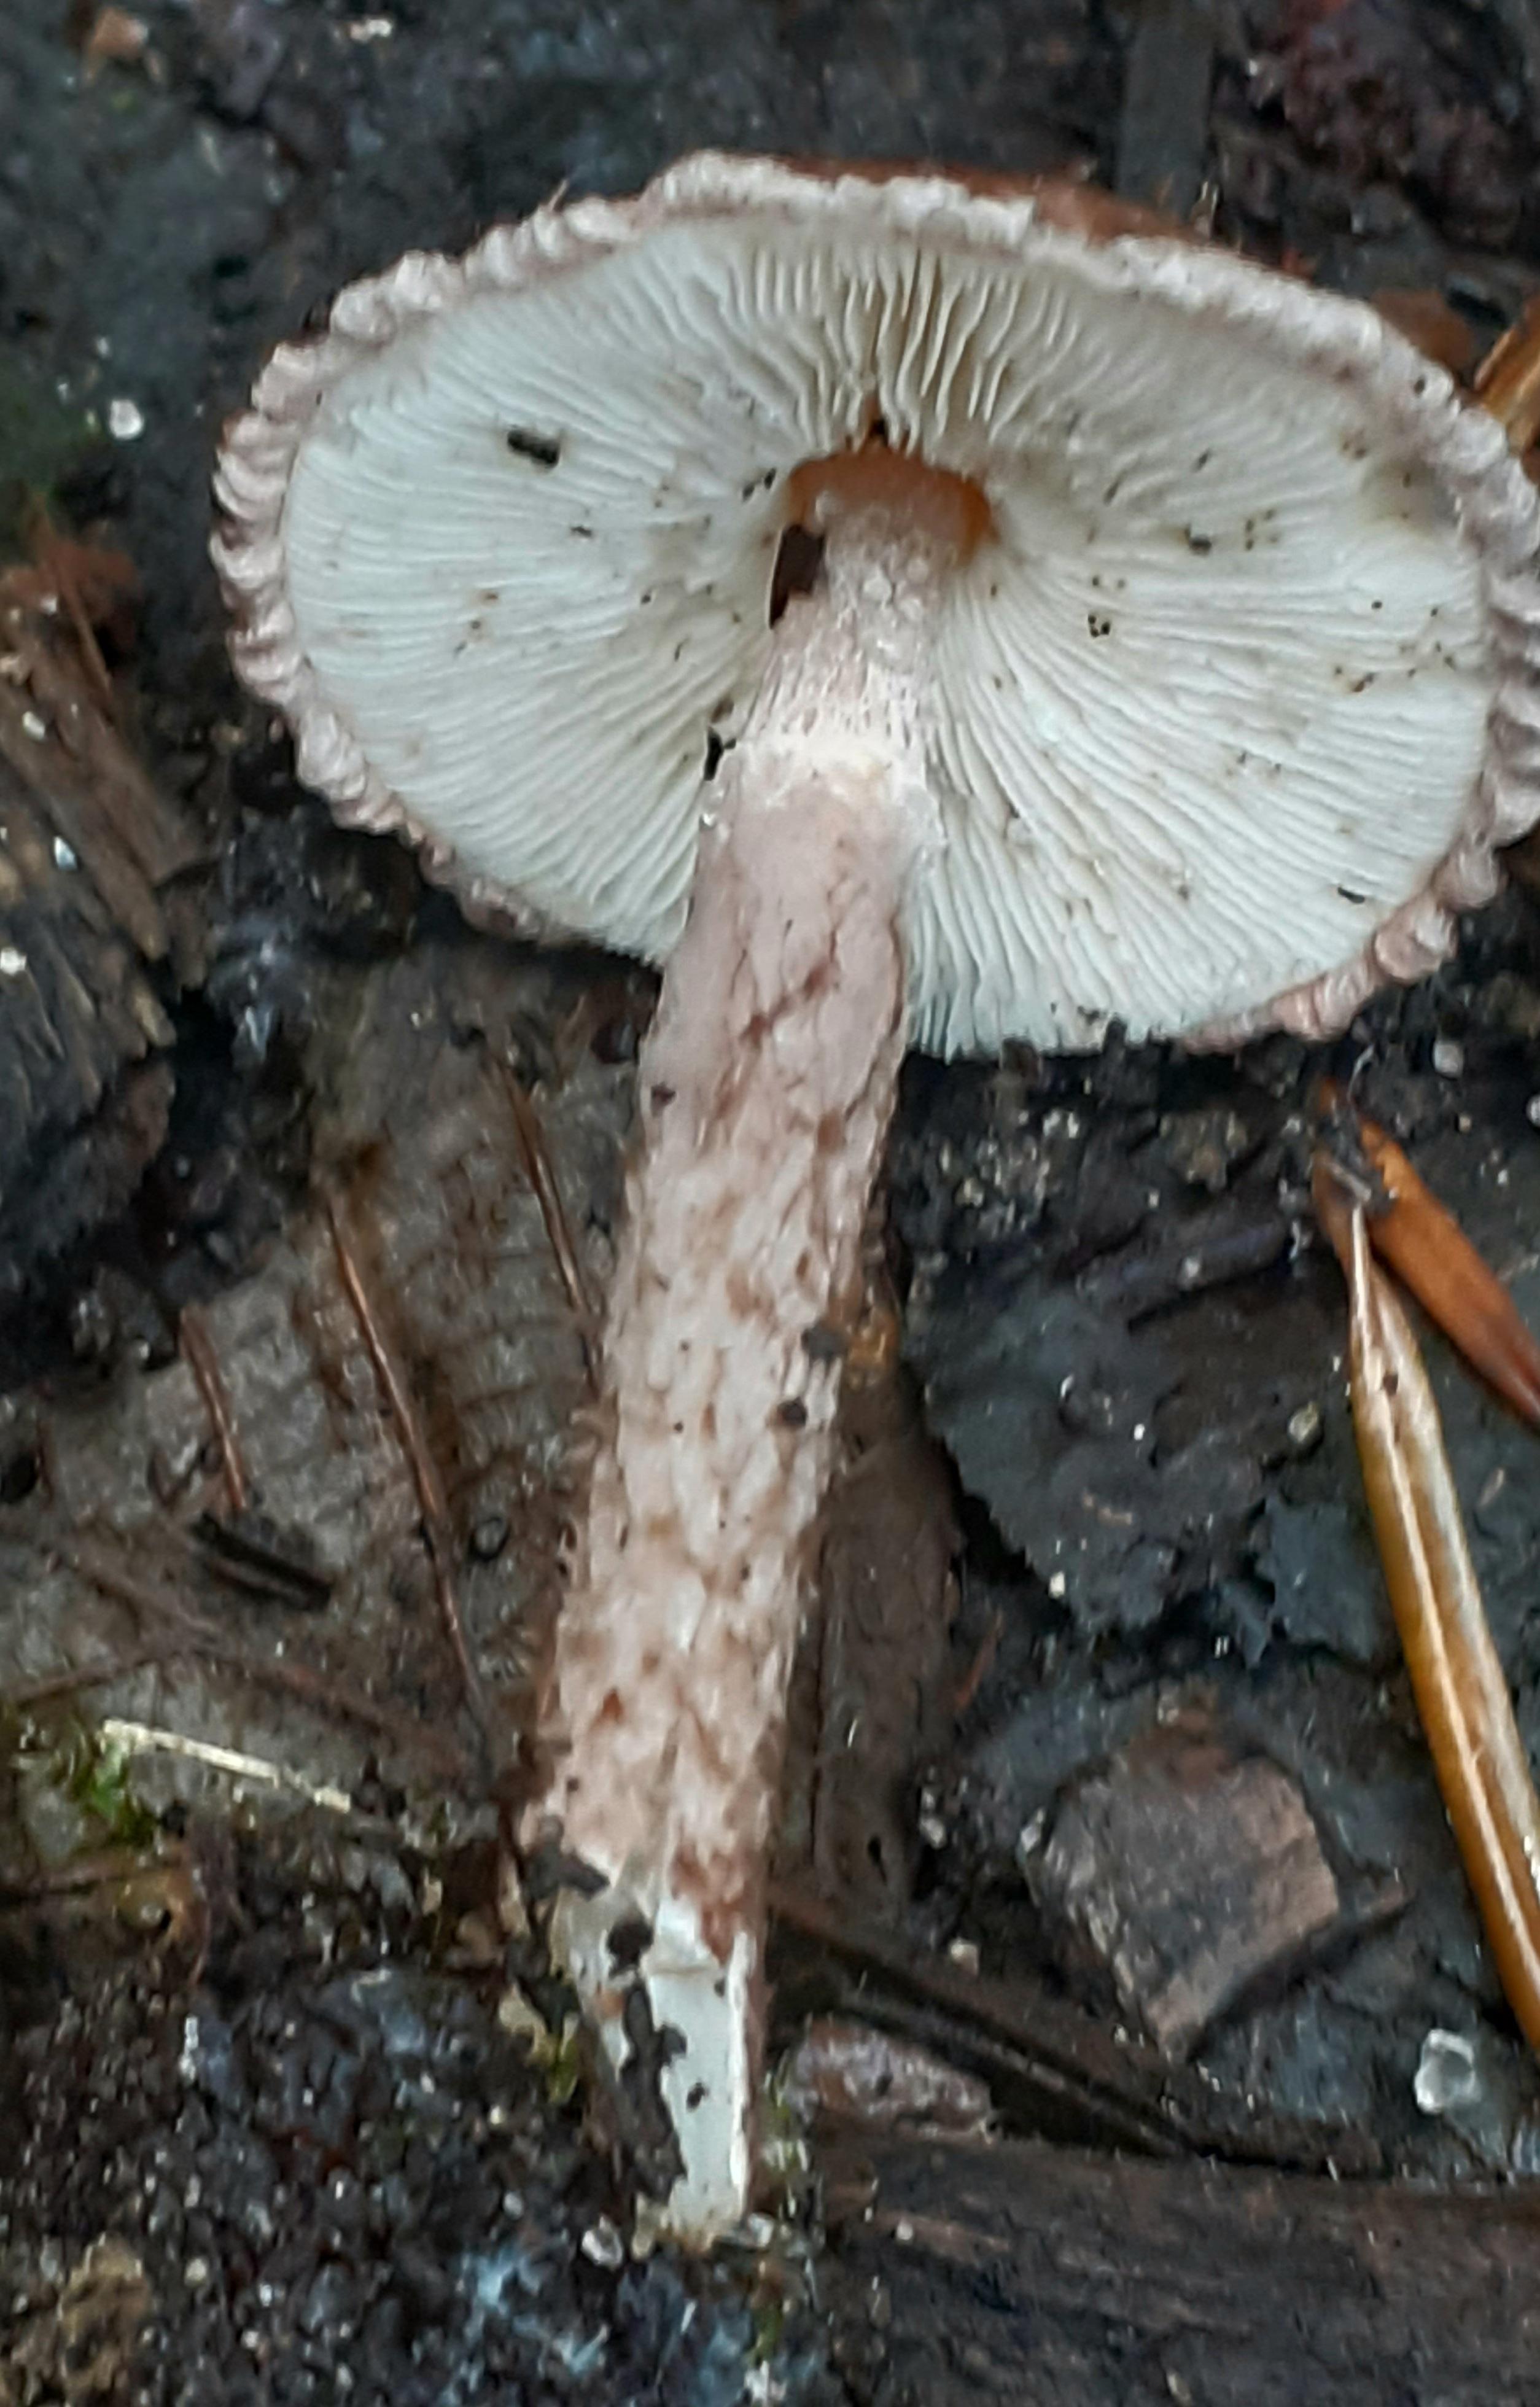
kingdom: Fungi
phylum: Basidiomycota
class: Agaricomycetes
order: Agaricales
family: Agaricaceae
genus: Lepiota
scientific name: Lepiota fuscovinacea
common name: vinrød parasolhat
